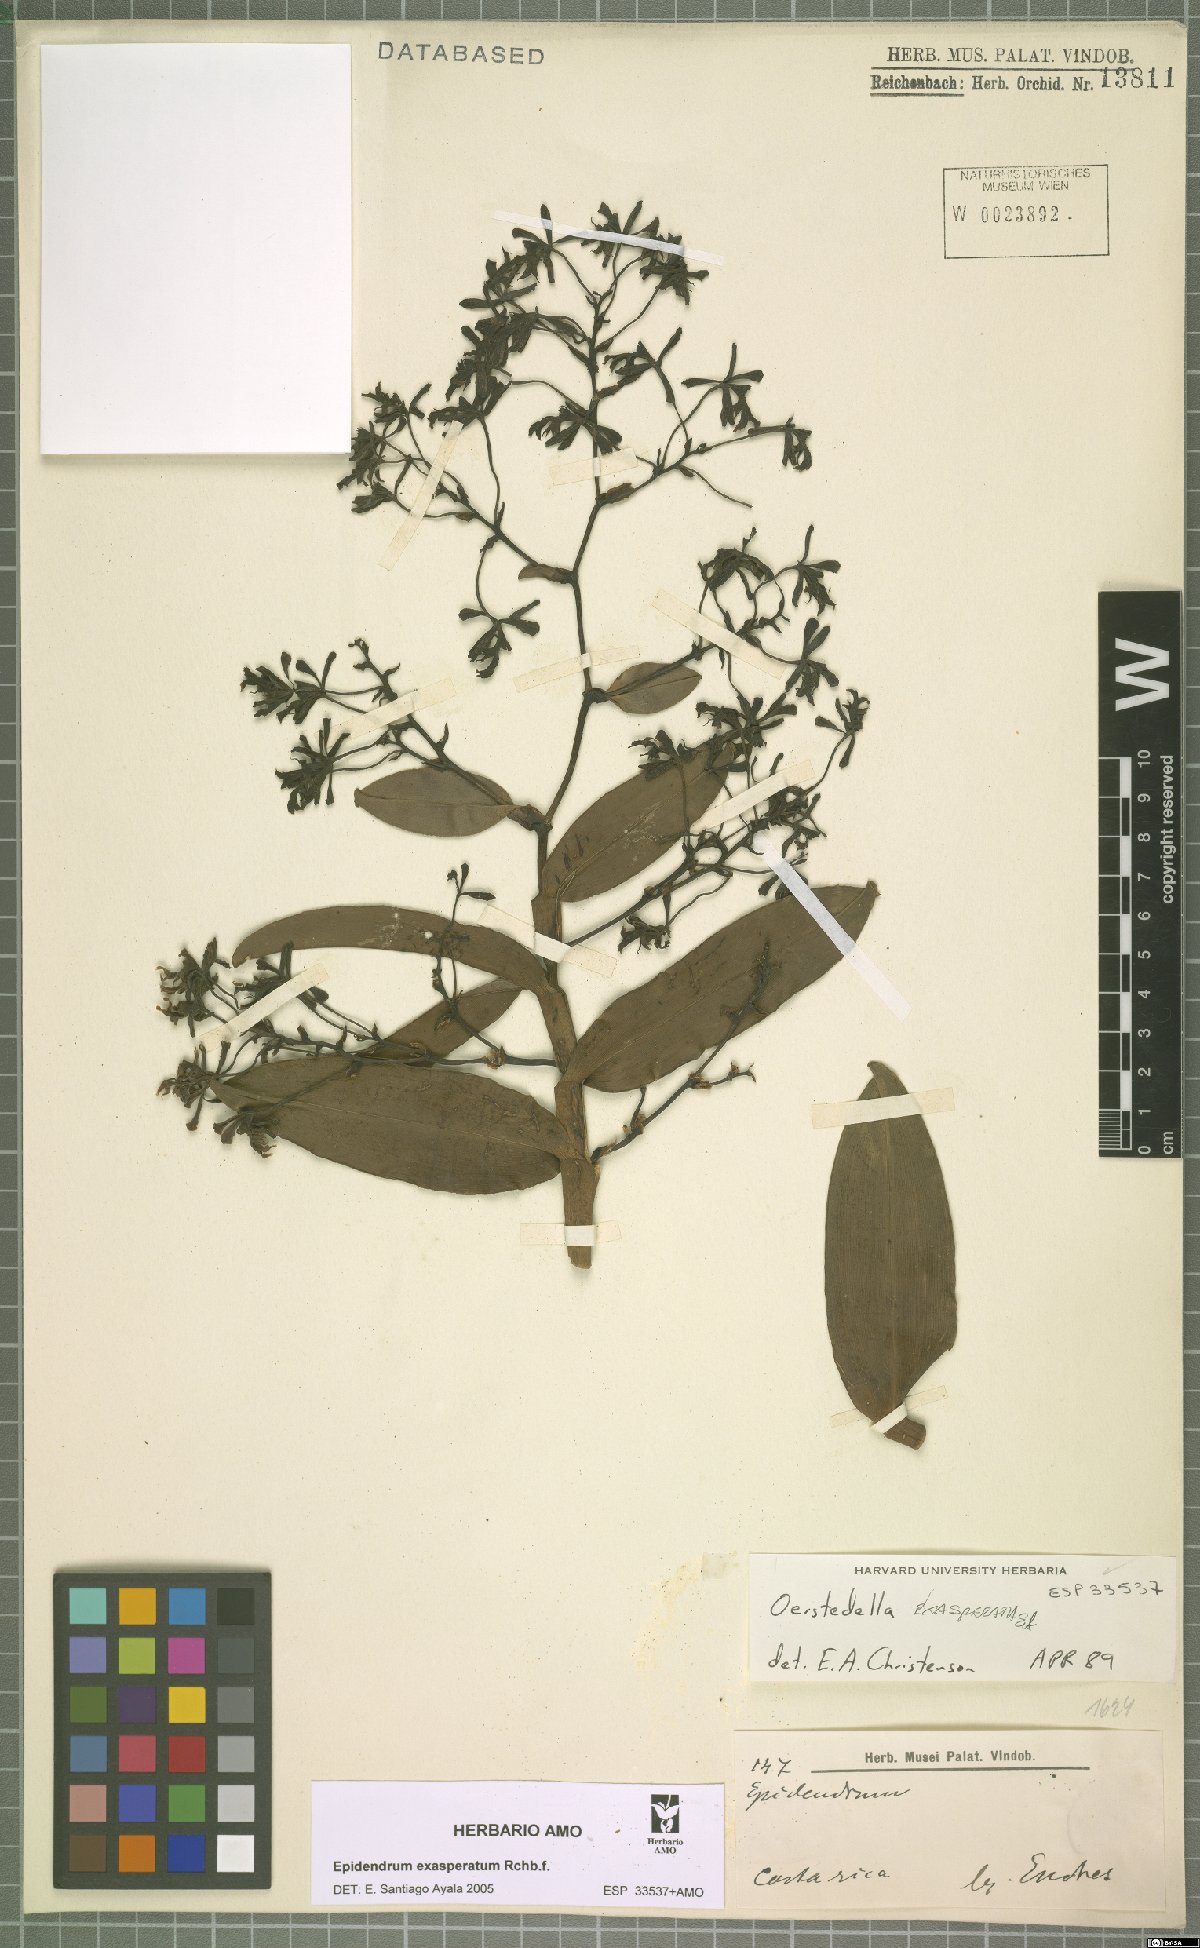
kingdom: Plantae
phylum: Tracheophyta
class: Liliopsida
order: Asparagales
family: Orchidaceae
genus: Epidendrum
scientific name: Epidendrum exasperatum
